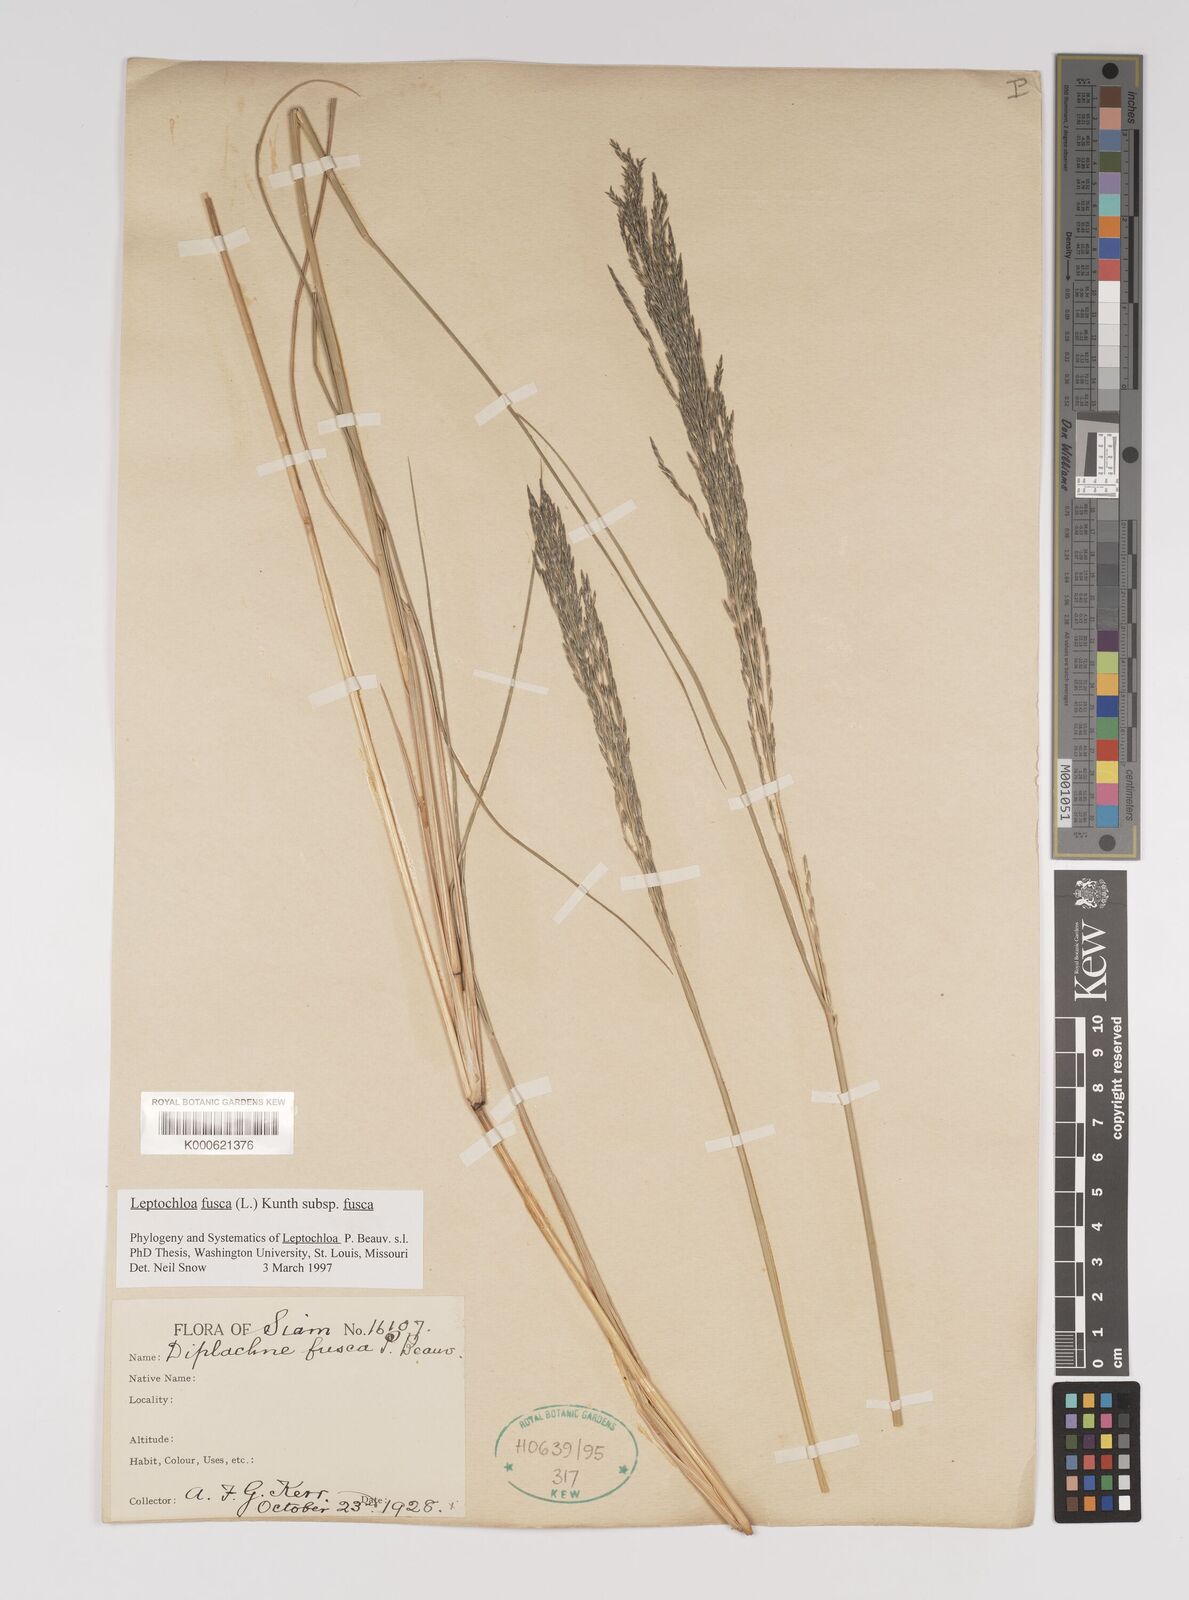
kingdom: Plantae
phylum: Tracheophyta
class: Liliopsida
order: Poales
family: Poaceae
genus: Diplachne
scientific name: Diplachne fusca
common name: Brown beetle grass
